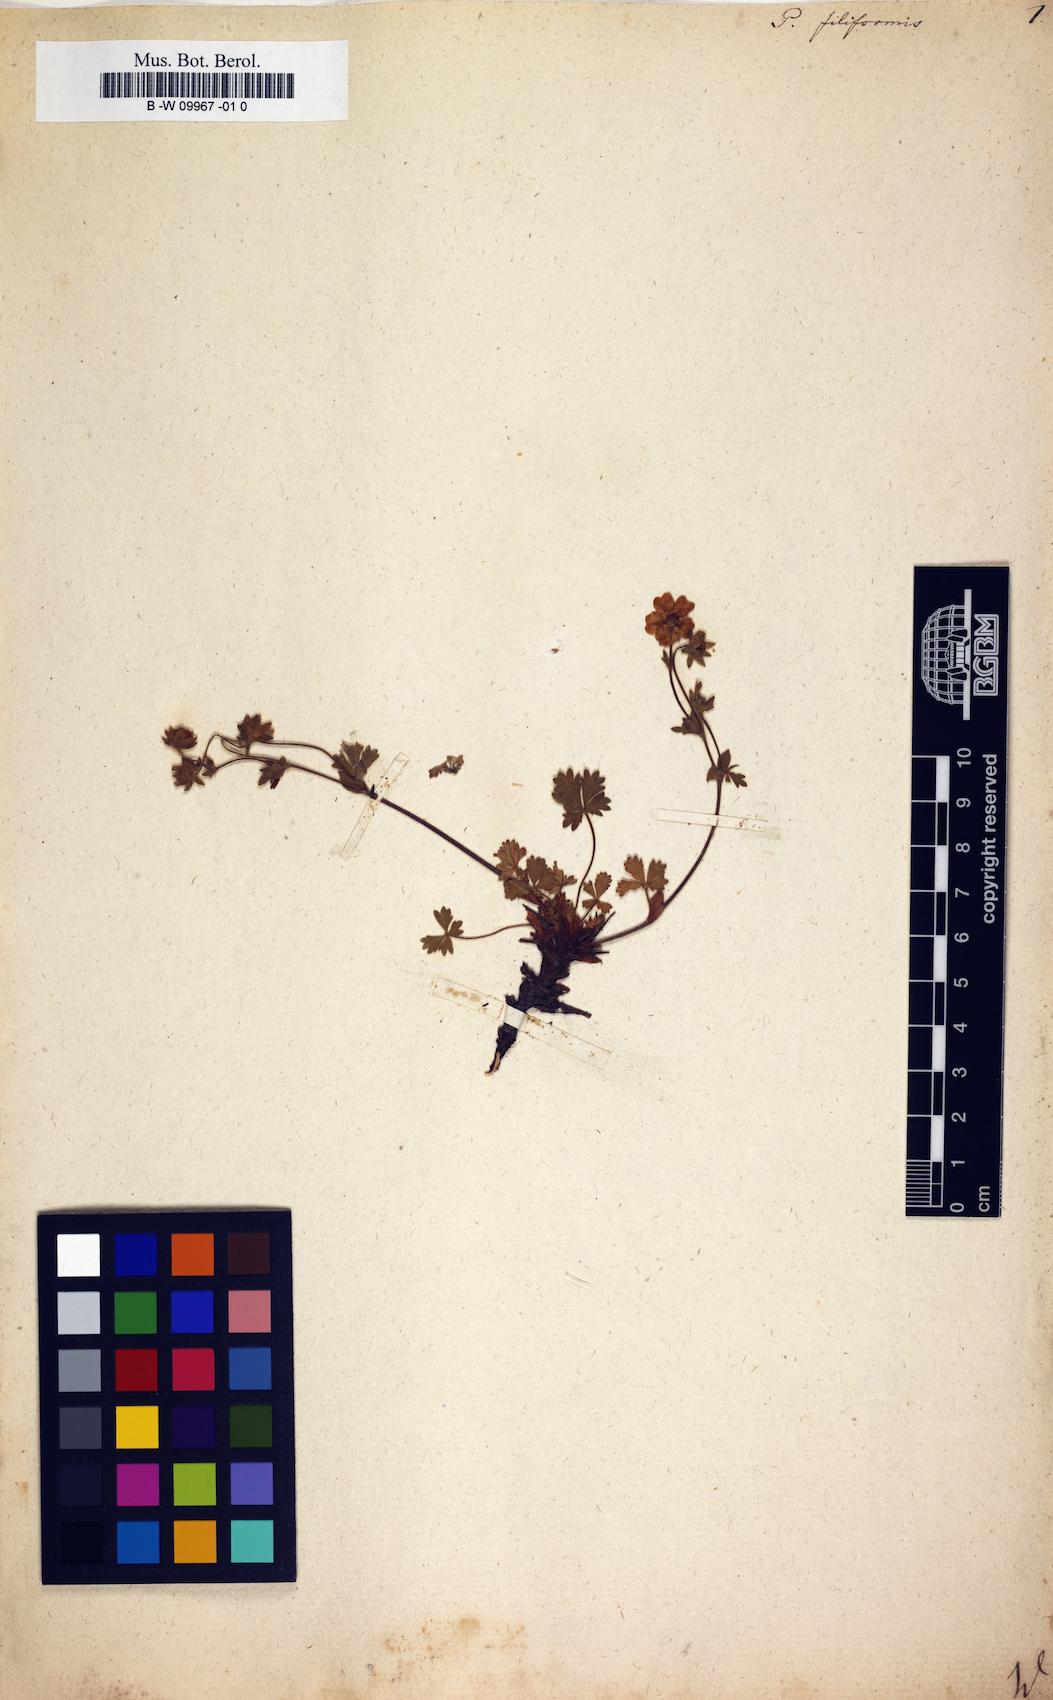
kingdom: Plantae
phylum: Tracheophyta
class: Magnoliopsida
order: Rosales
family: Rosaceae
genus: Potentilla
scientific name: Potentilla
